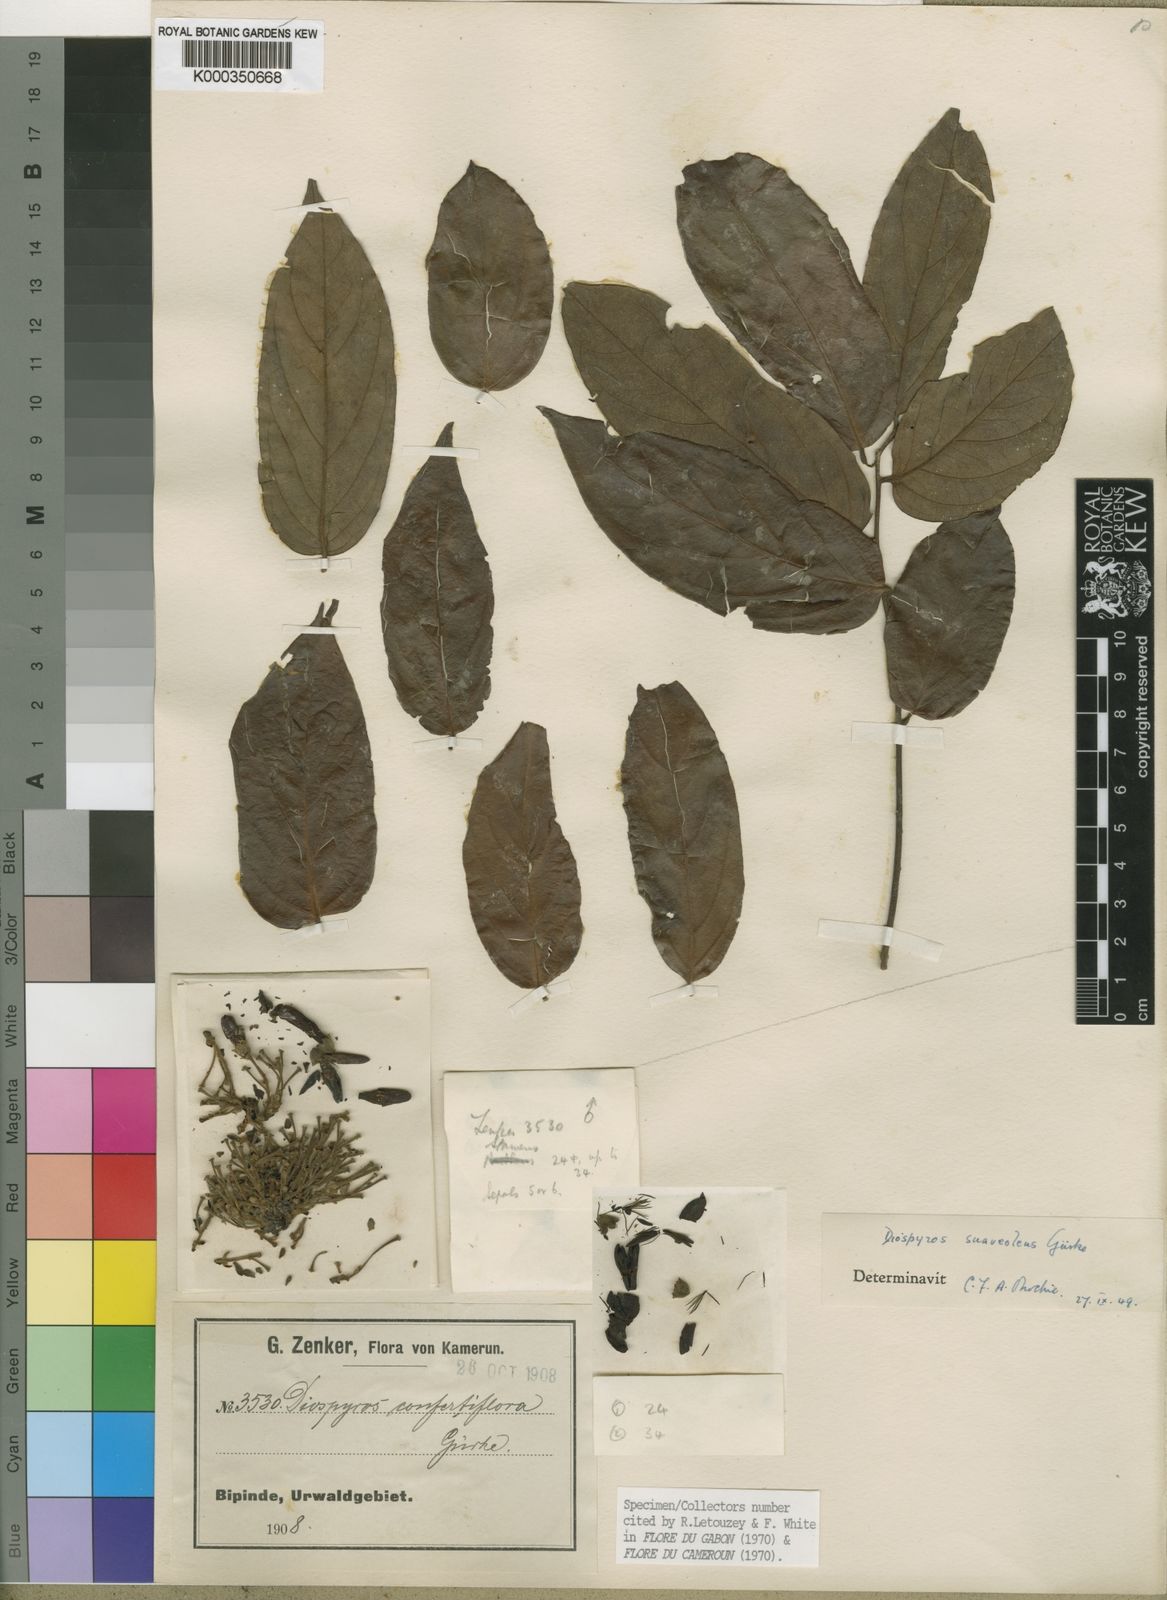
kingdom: Plantae
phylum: Tracheophyta
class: Magnoliopsida
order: Ericales
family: Ebenaceae
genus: Diospyros
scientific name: Diospyros
